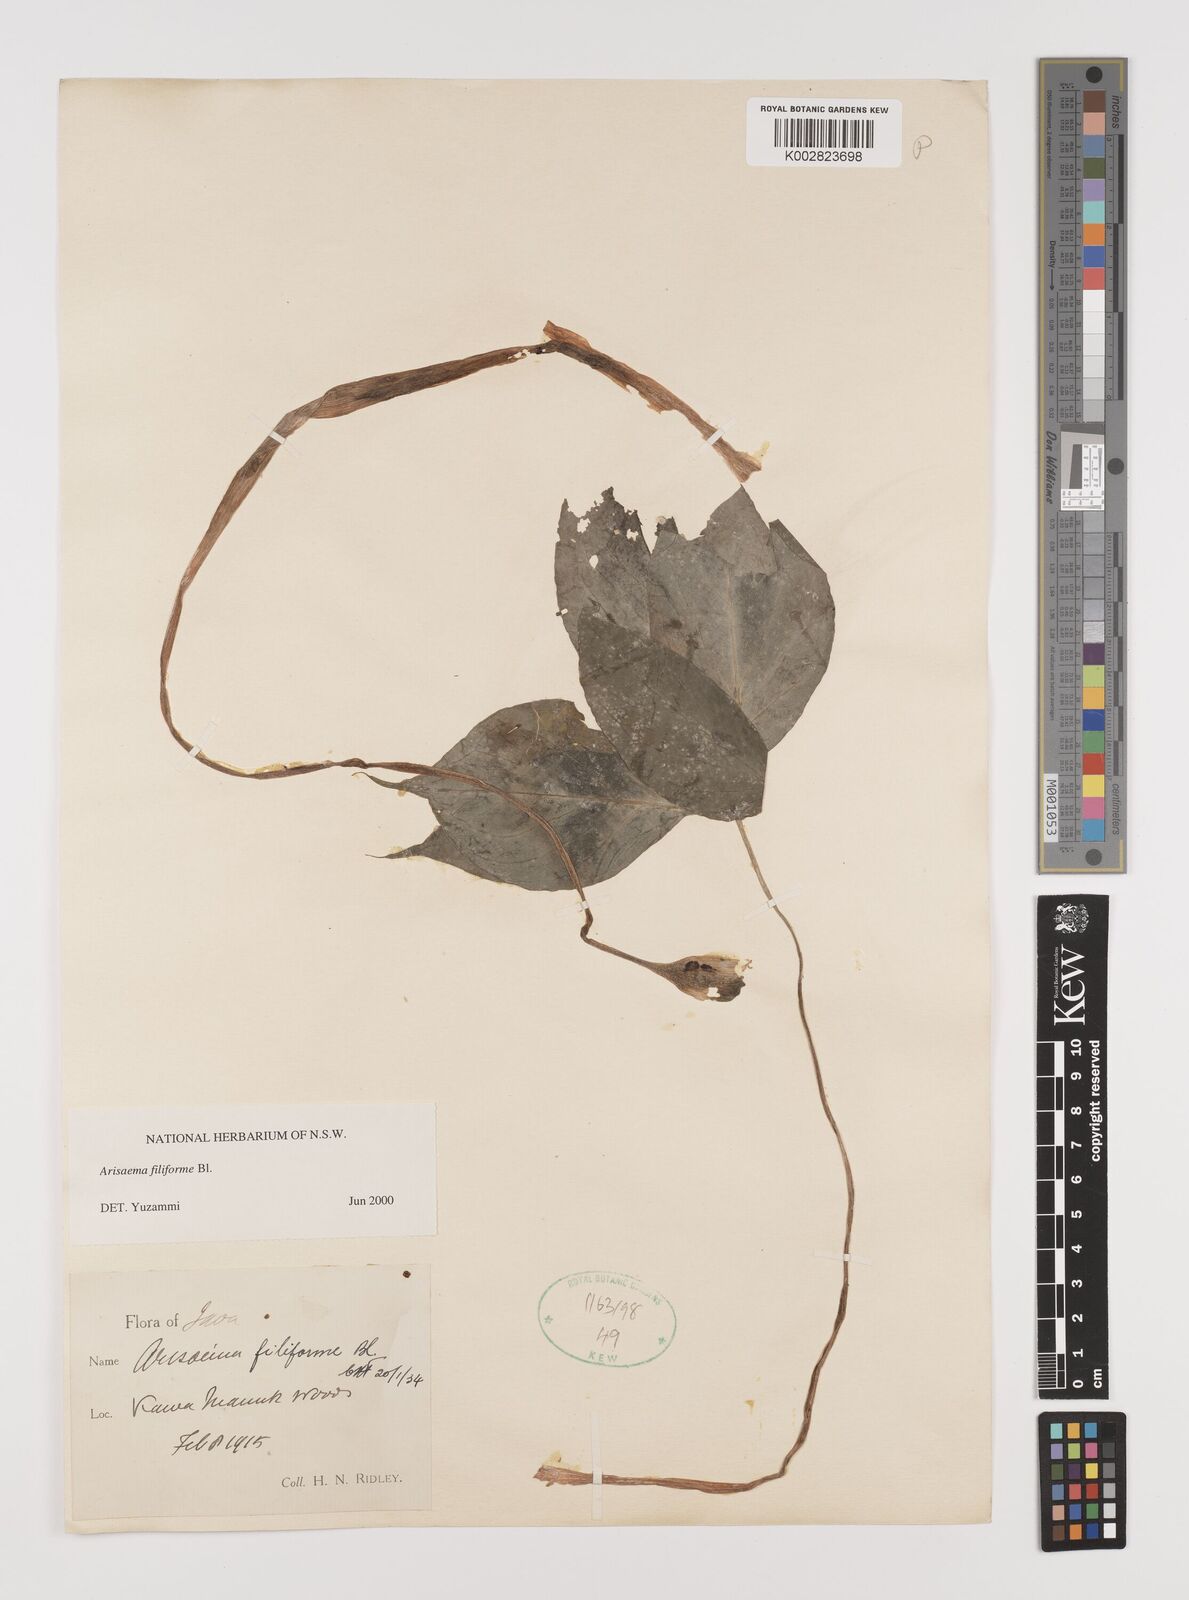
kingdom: Plantae
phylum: Tracheophyta
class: Liliopsida
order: Alismatales
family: Araceae
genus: Arisaema
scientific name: Arisaema filiforme
